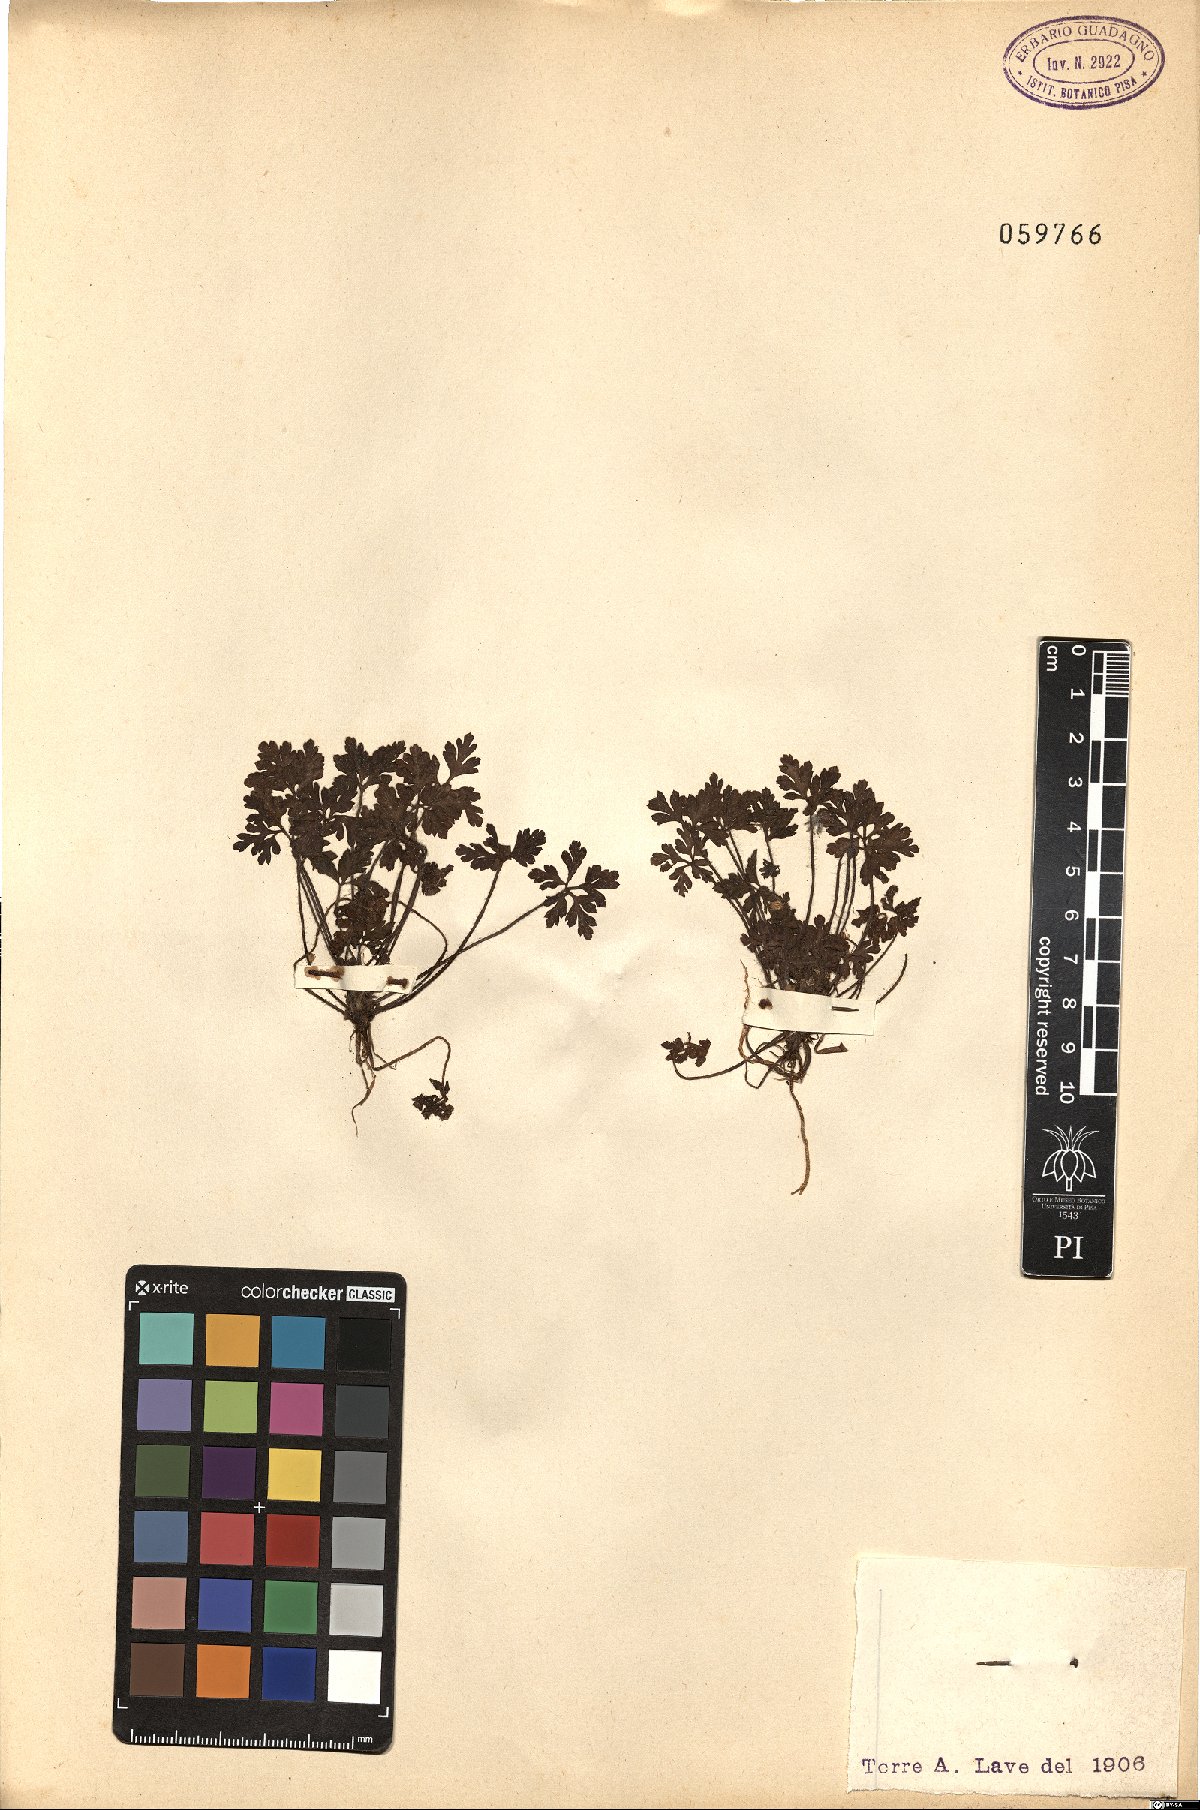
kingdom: Plantae
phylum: Tracheophyta
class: Magnoliopsida
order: Geraniales
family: Geraniaceae
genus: Geranium
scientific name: Geranium purpureum
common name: Little-robin
